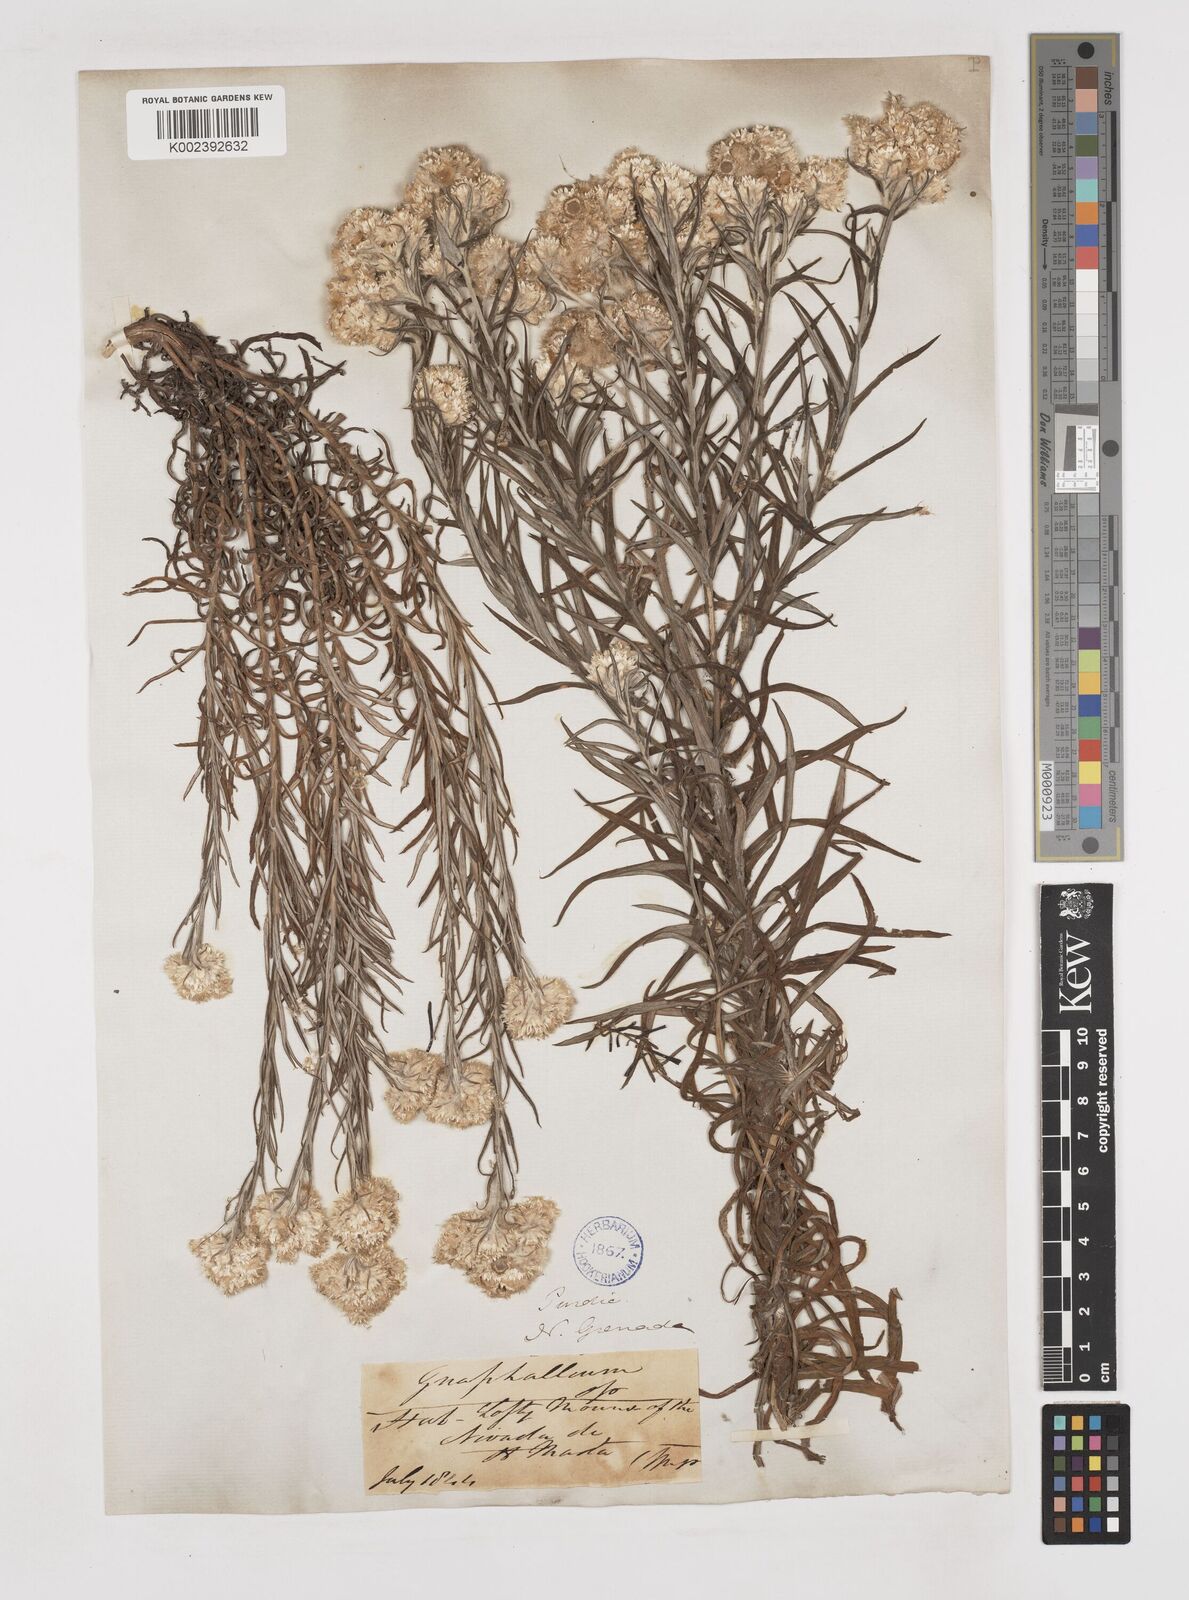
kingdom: Plantae
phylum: Tracheophyta
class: Magnoliopsida
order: Asterales
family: Asteraceae
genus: Gnaphalium
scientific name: Gnaphalium
